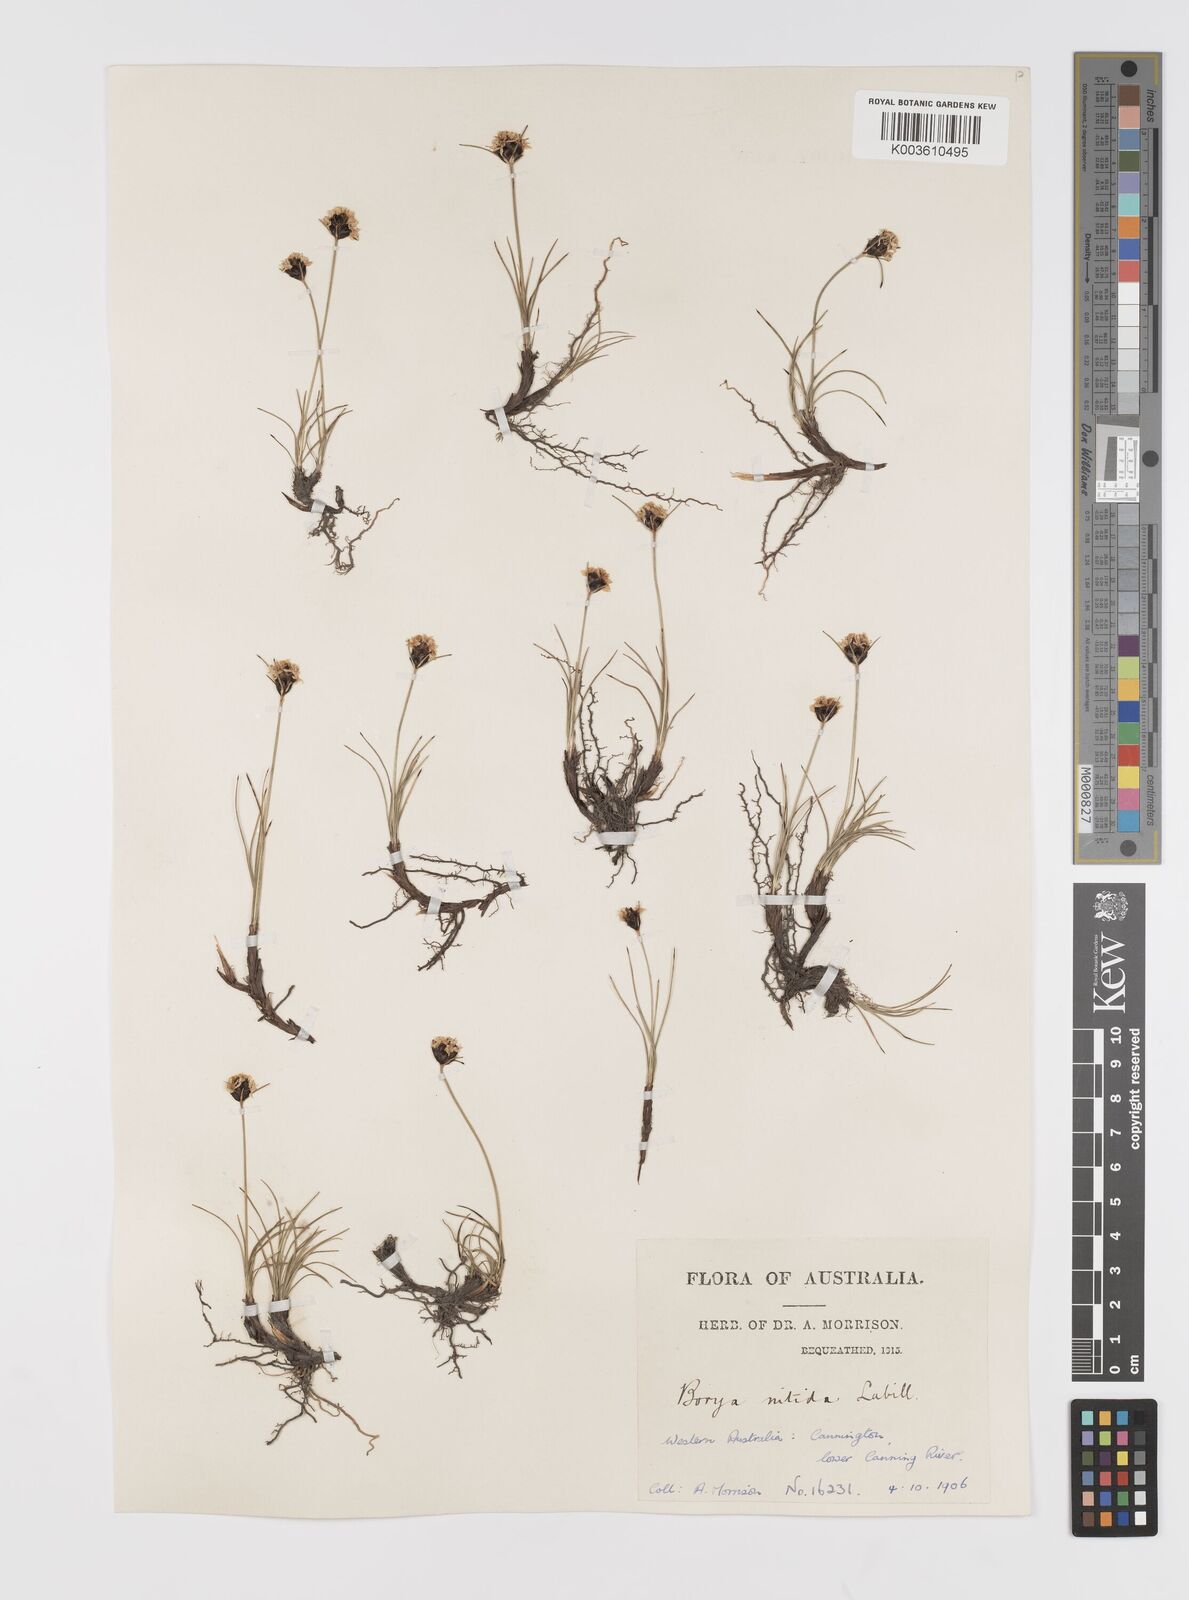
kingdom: Plantae
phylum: Tracheophyta
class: Liliopsida
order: Asparagales
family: Boryaceae
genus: Borya
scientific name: Borya nitida
